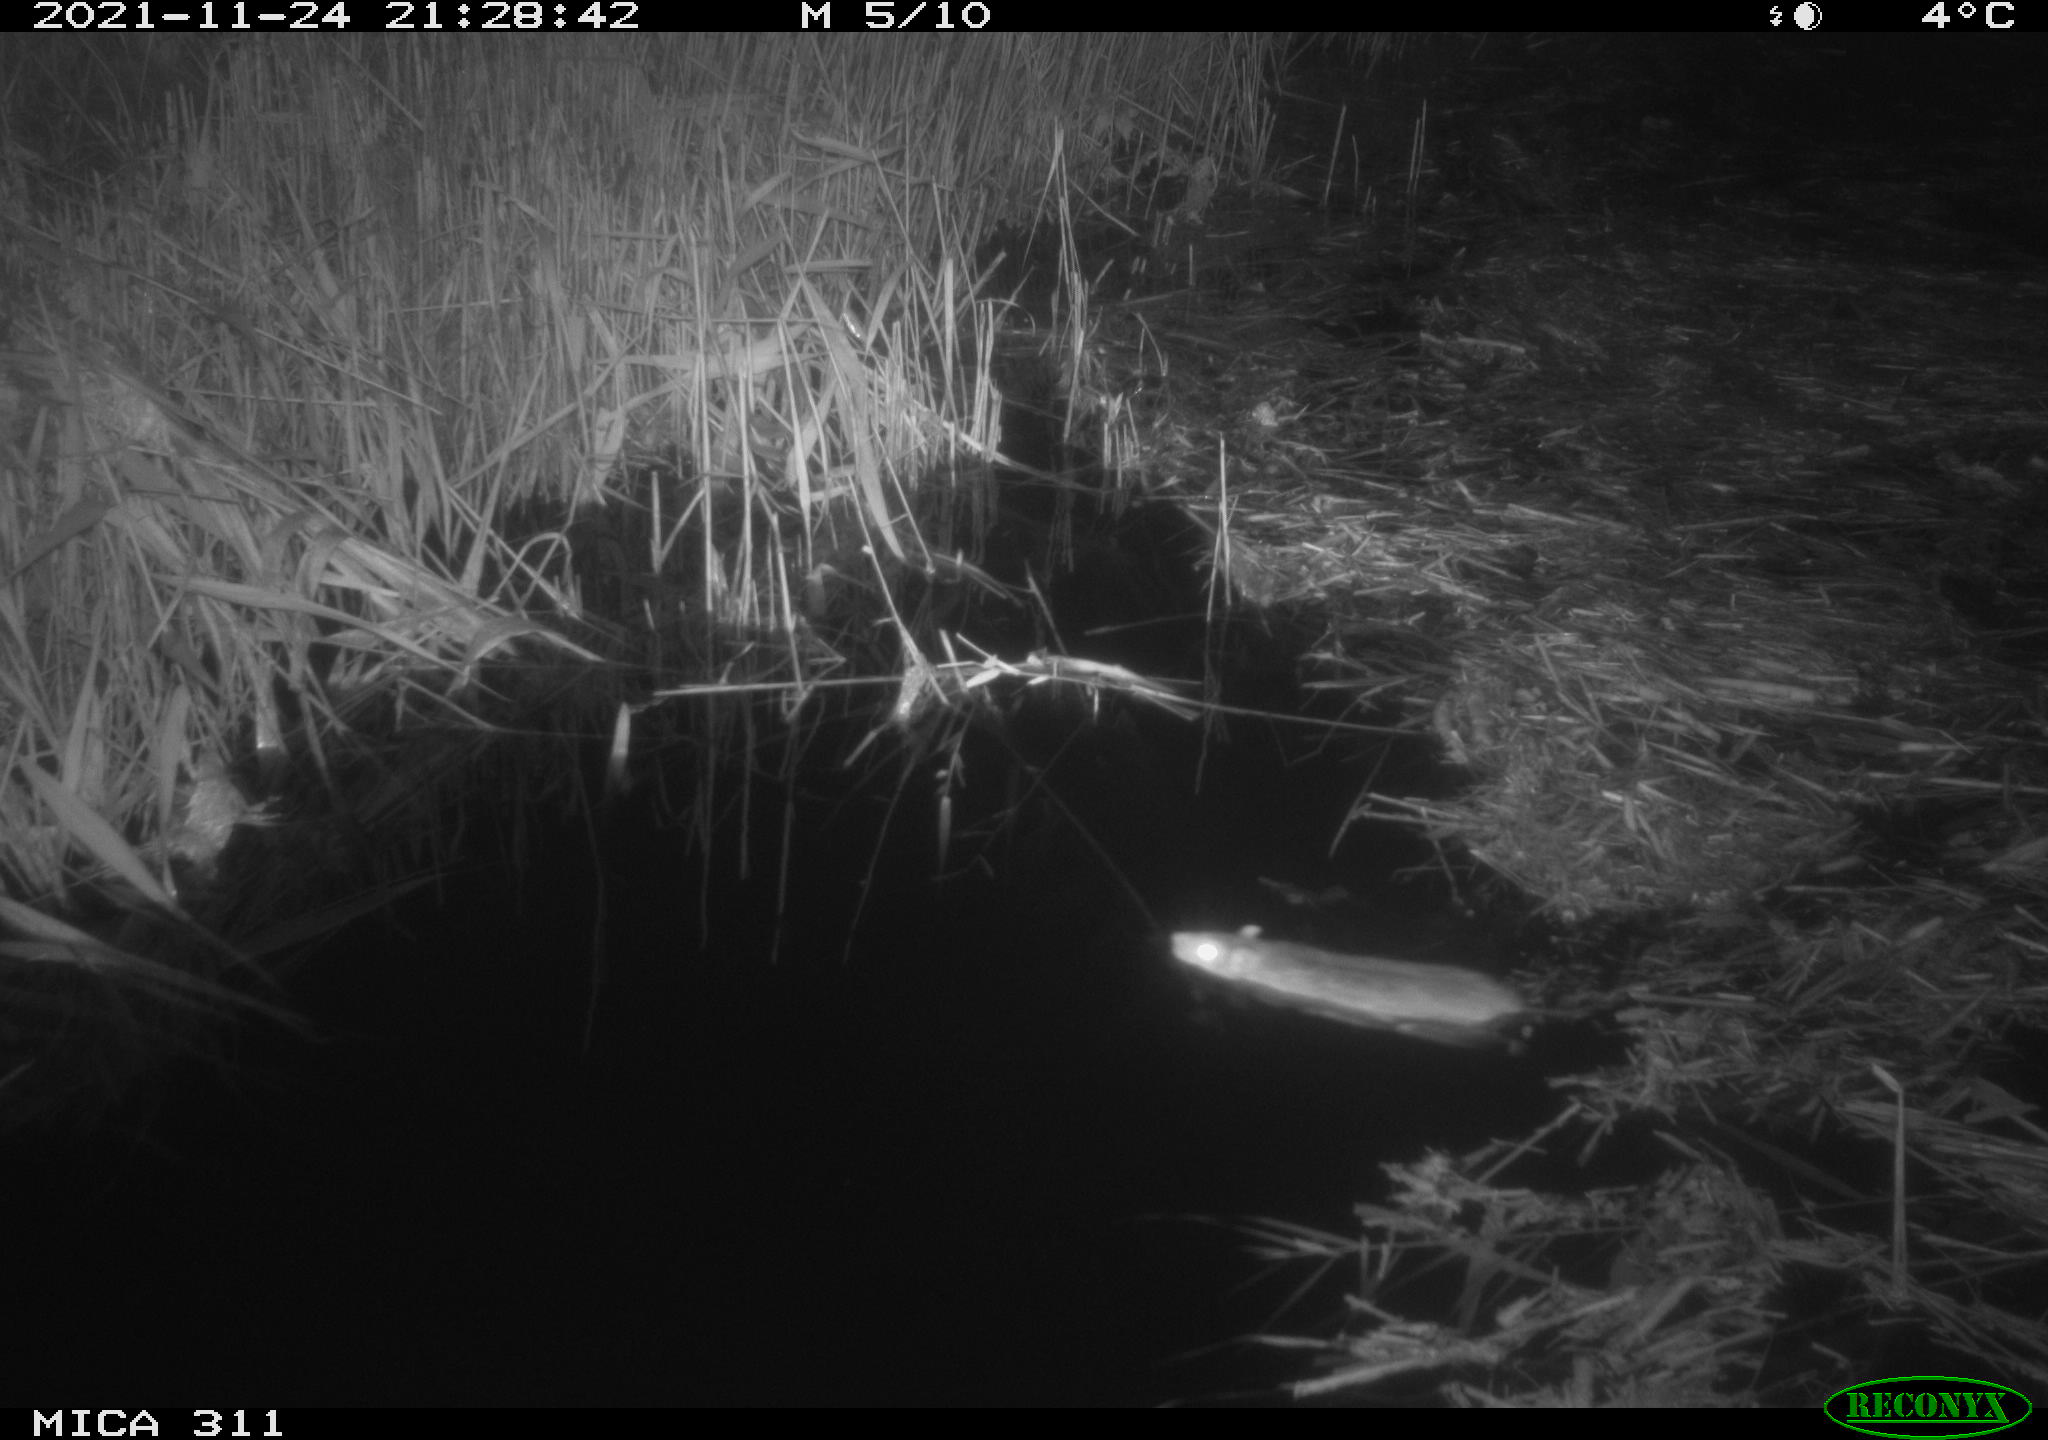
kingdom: Animalia
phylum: Chordata
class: Mammalia
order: Rodentia
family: Muridae
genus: Rattus
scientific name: Rattus norvegicus
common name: Brown rat
